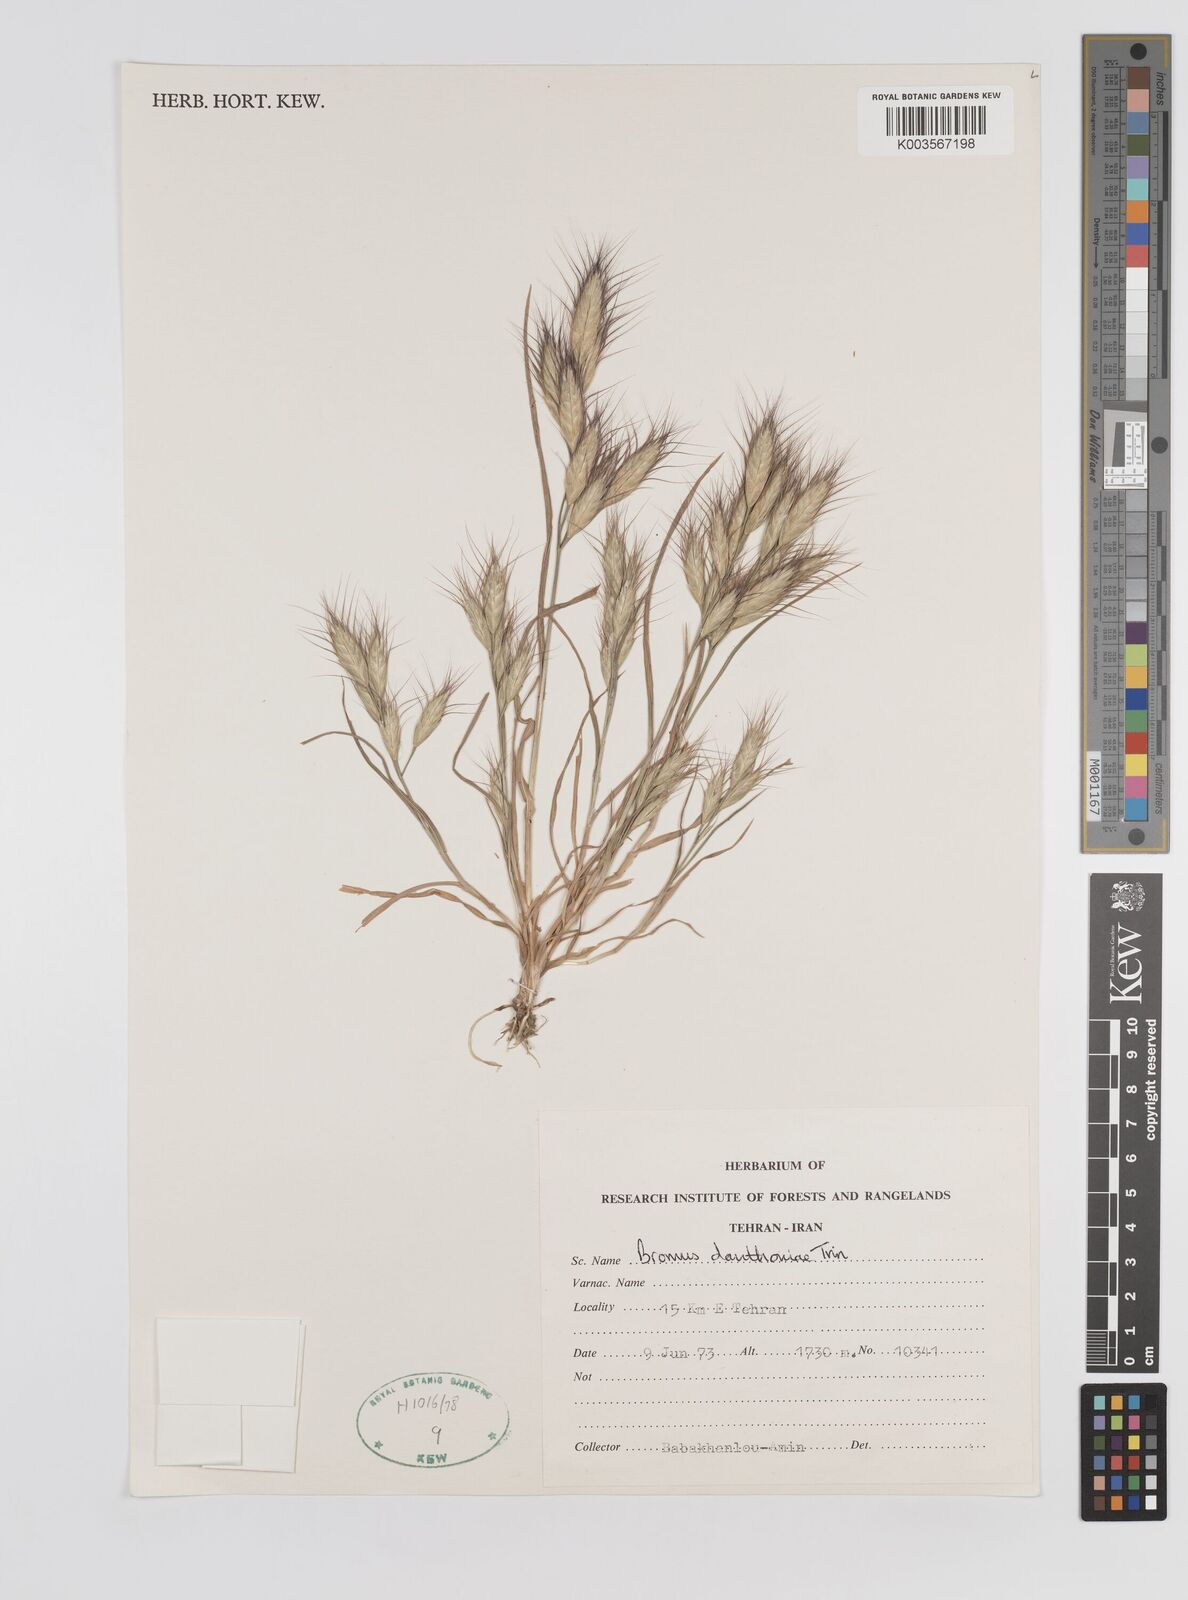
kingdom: Plantae
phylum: Tracheophyta
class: Liliopsida
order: Poales
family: Poaceae
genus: Bromus
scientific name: Bromus danthoniae
